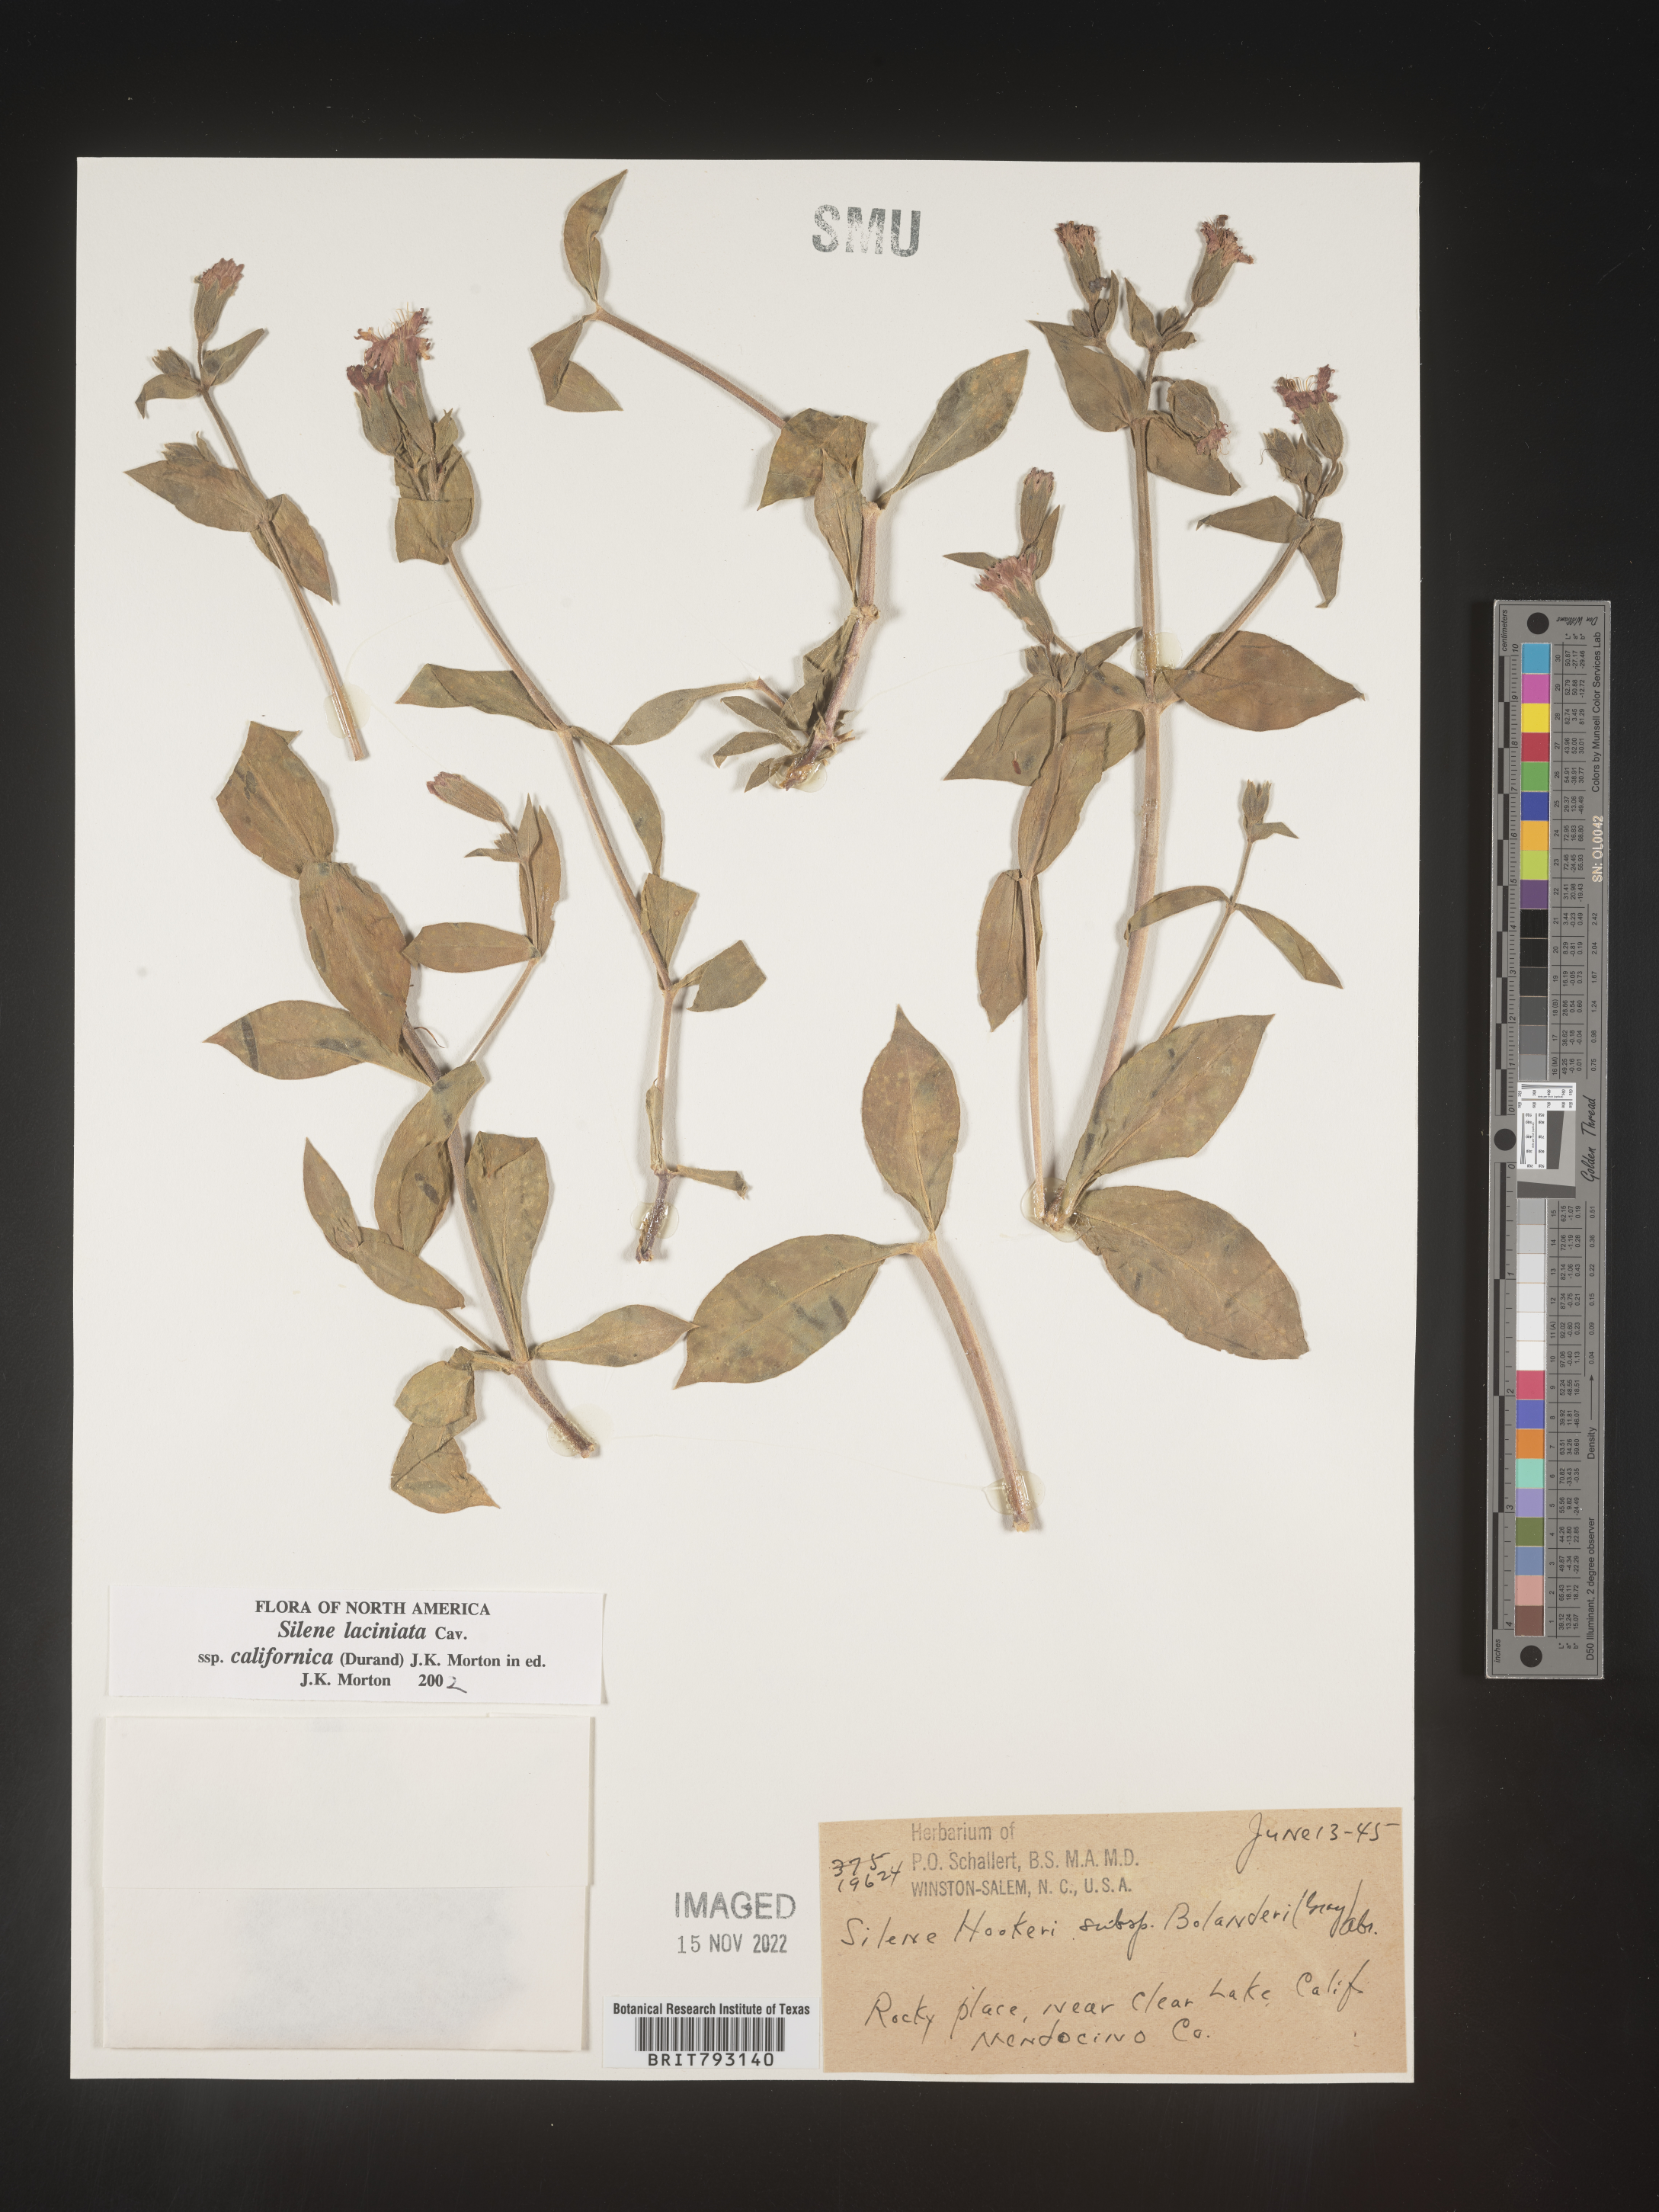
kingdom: Plantae
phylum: Tracheophyta
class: Magnoliopsida
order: Caryophyllales
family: Caryophyllaceae
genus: Silene
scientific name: Silene laciniata
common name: Indian-pink
